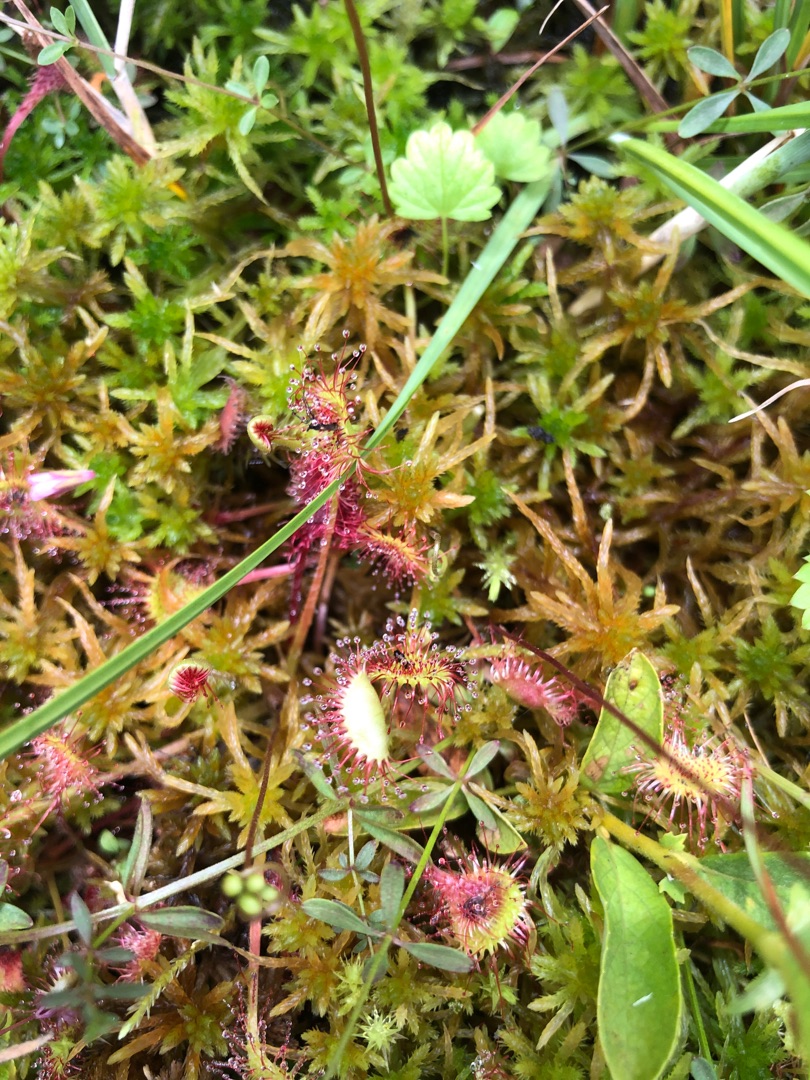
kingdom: Plantae
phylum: Tracheophyta
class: Magnoliopsida
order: Caryophyllales
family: Droseraceae
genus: Drosera
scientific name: Drosera rotundifolia
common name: Rundbladet soldug
